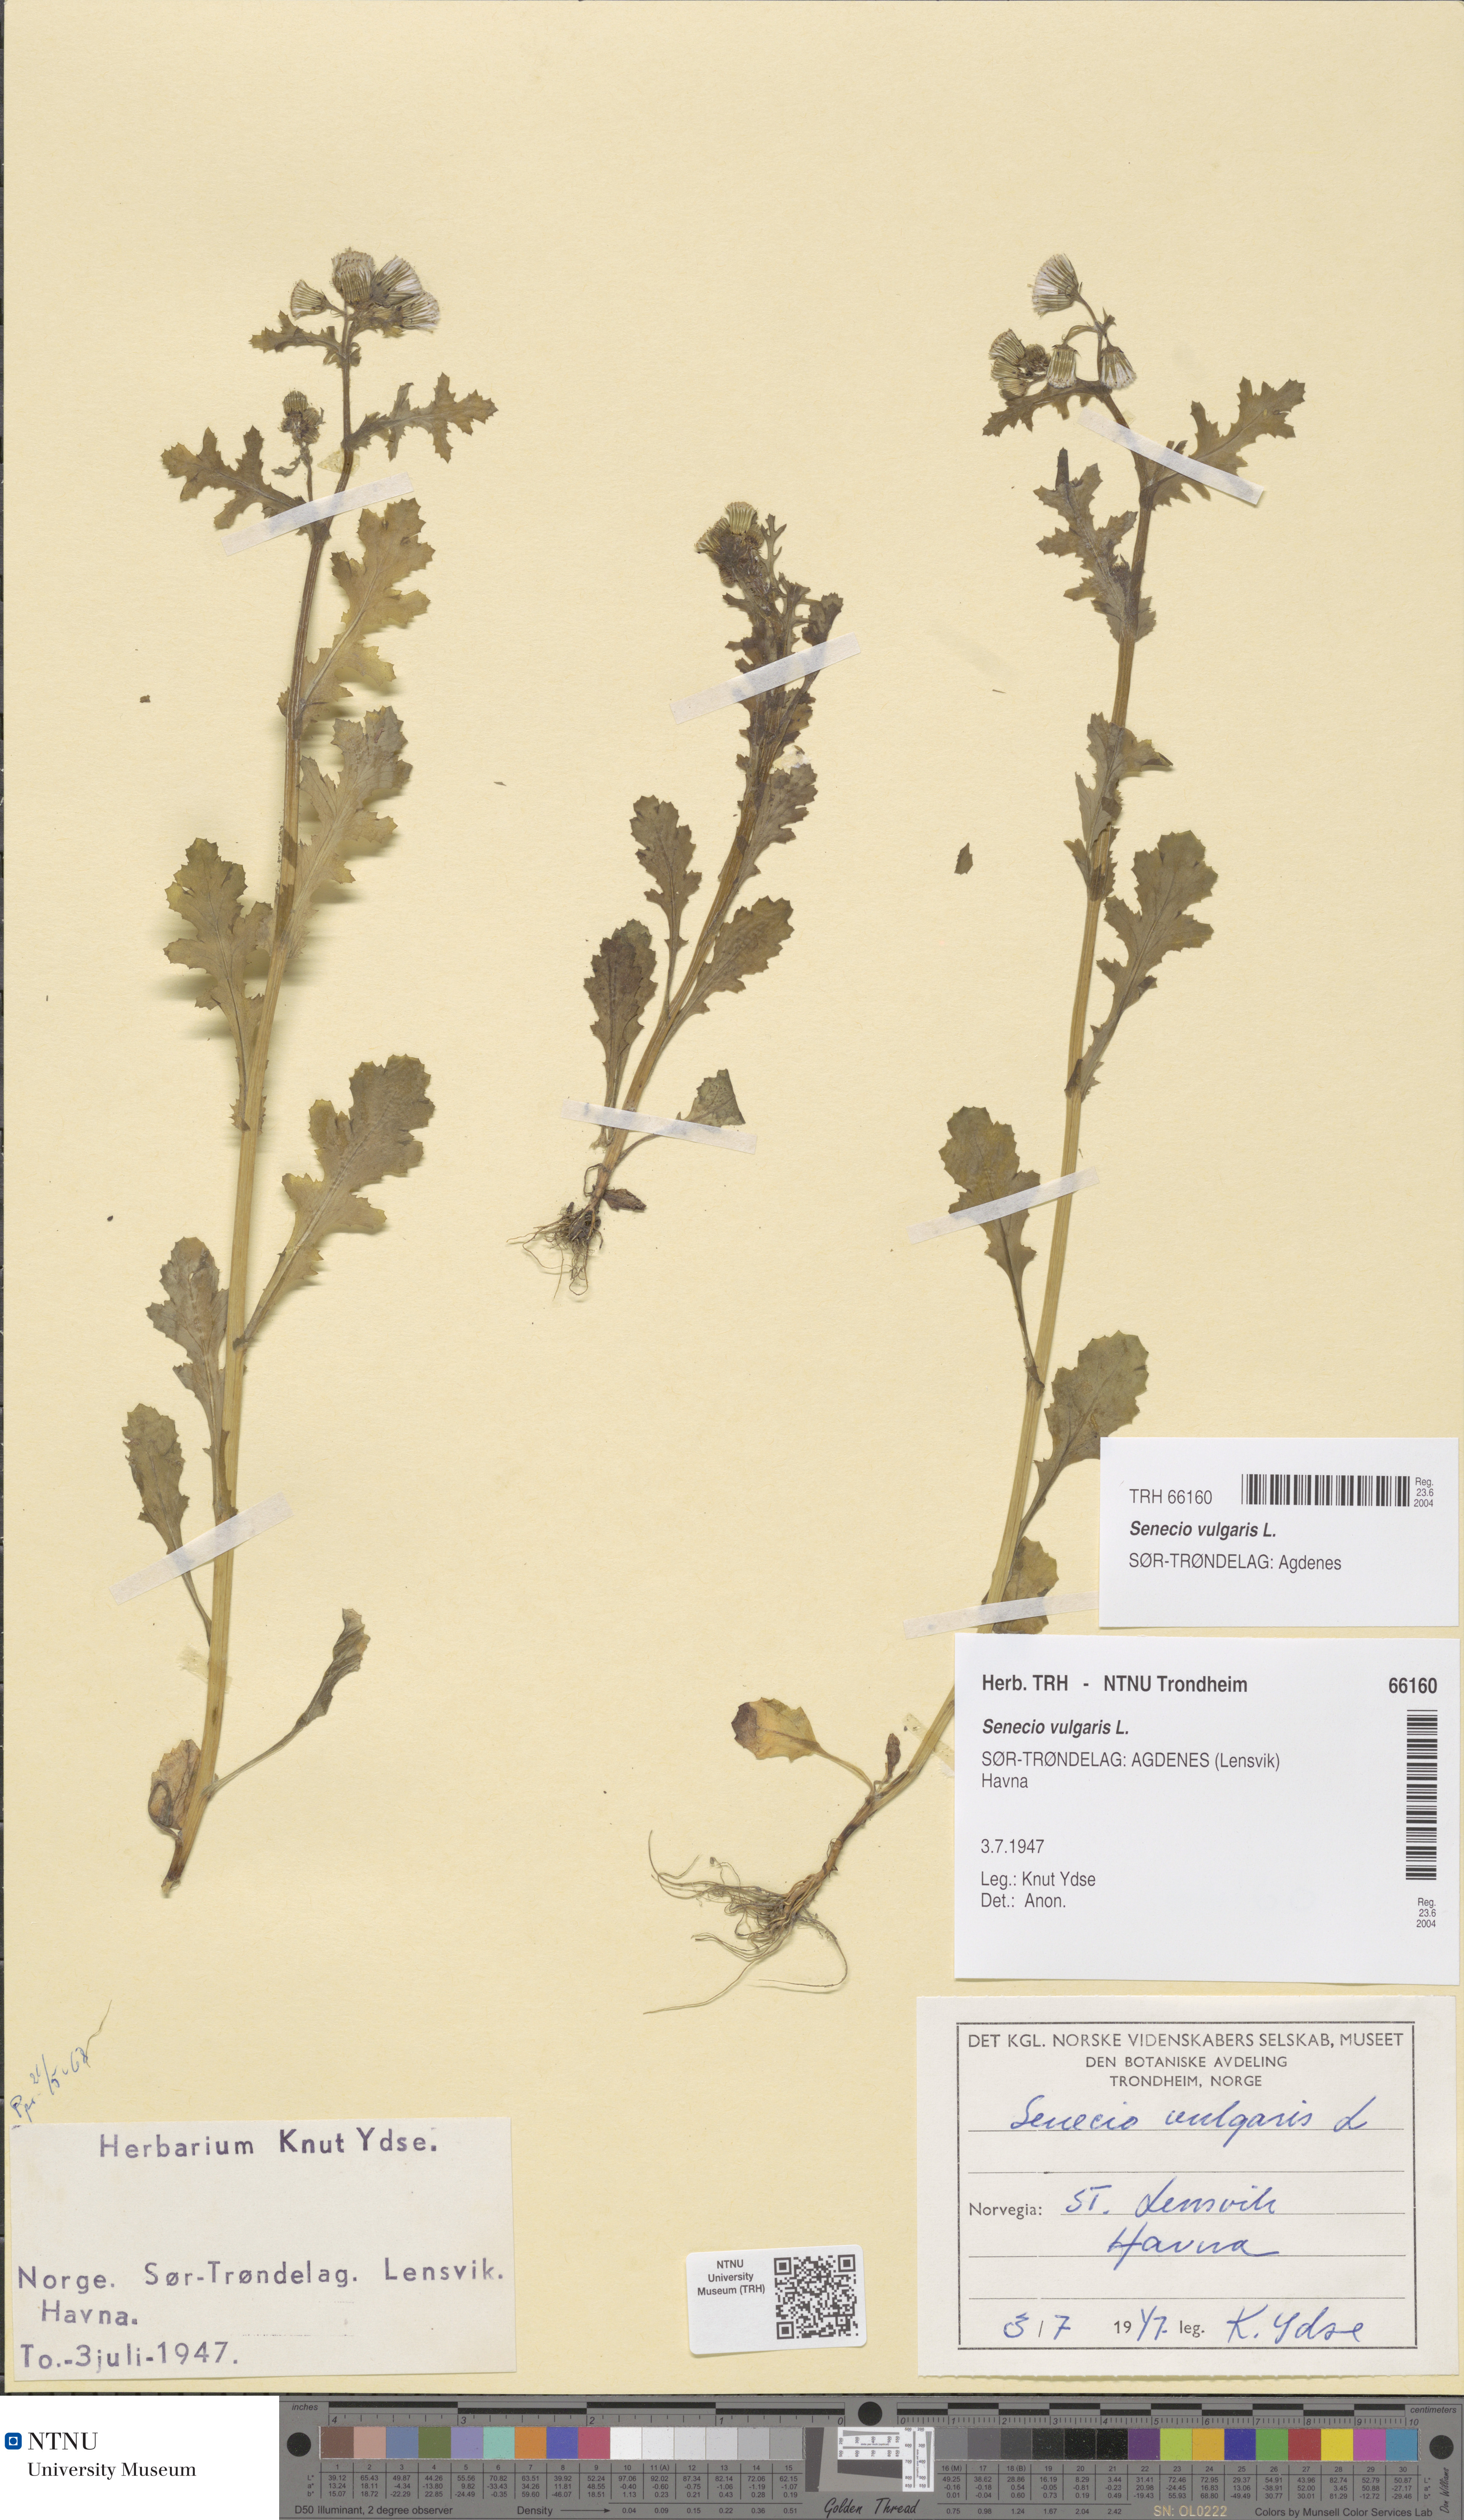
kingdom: Plantae
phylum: Tracheophyta
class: Magnoliopsida
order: Asterales
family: Asteraceae
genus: Senecio
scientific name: Senecio vulgaris
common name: Old-man-in-the-spring
